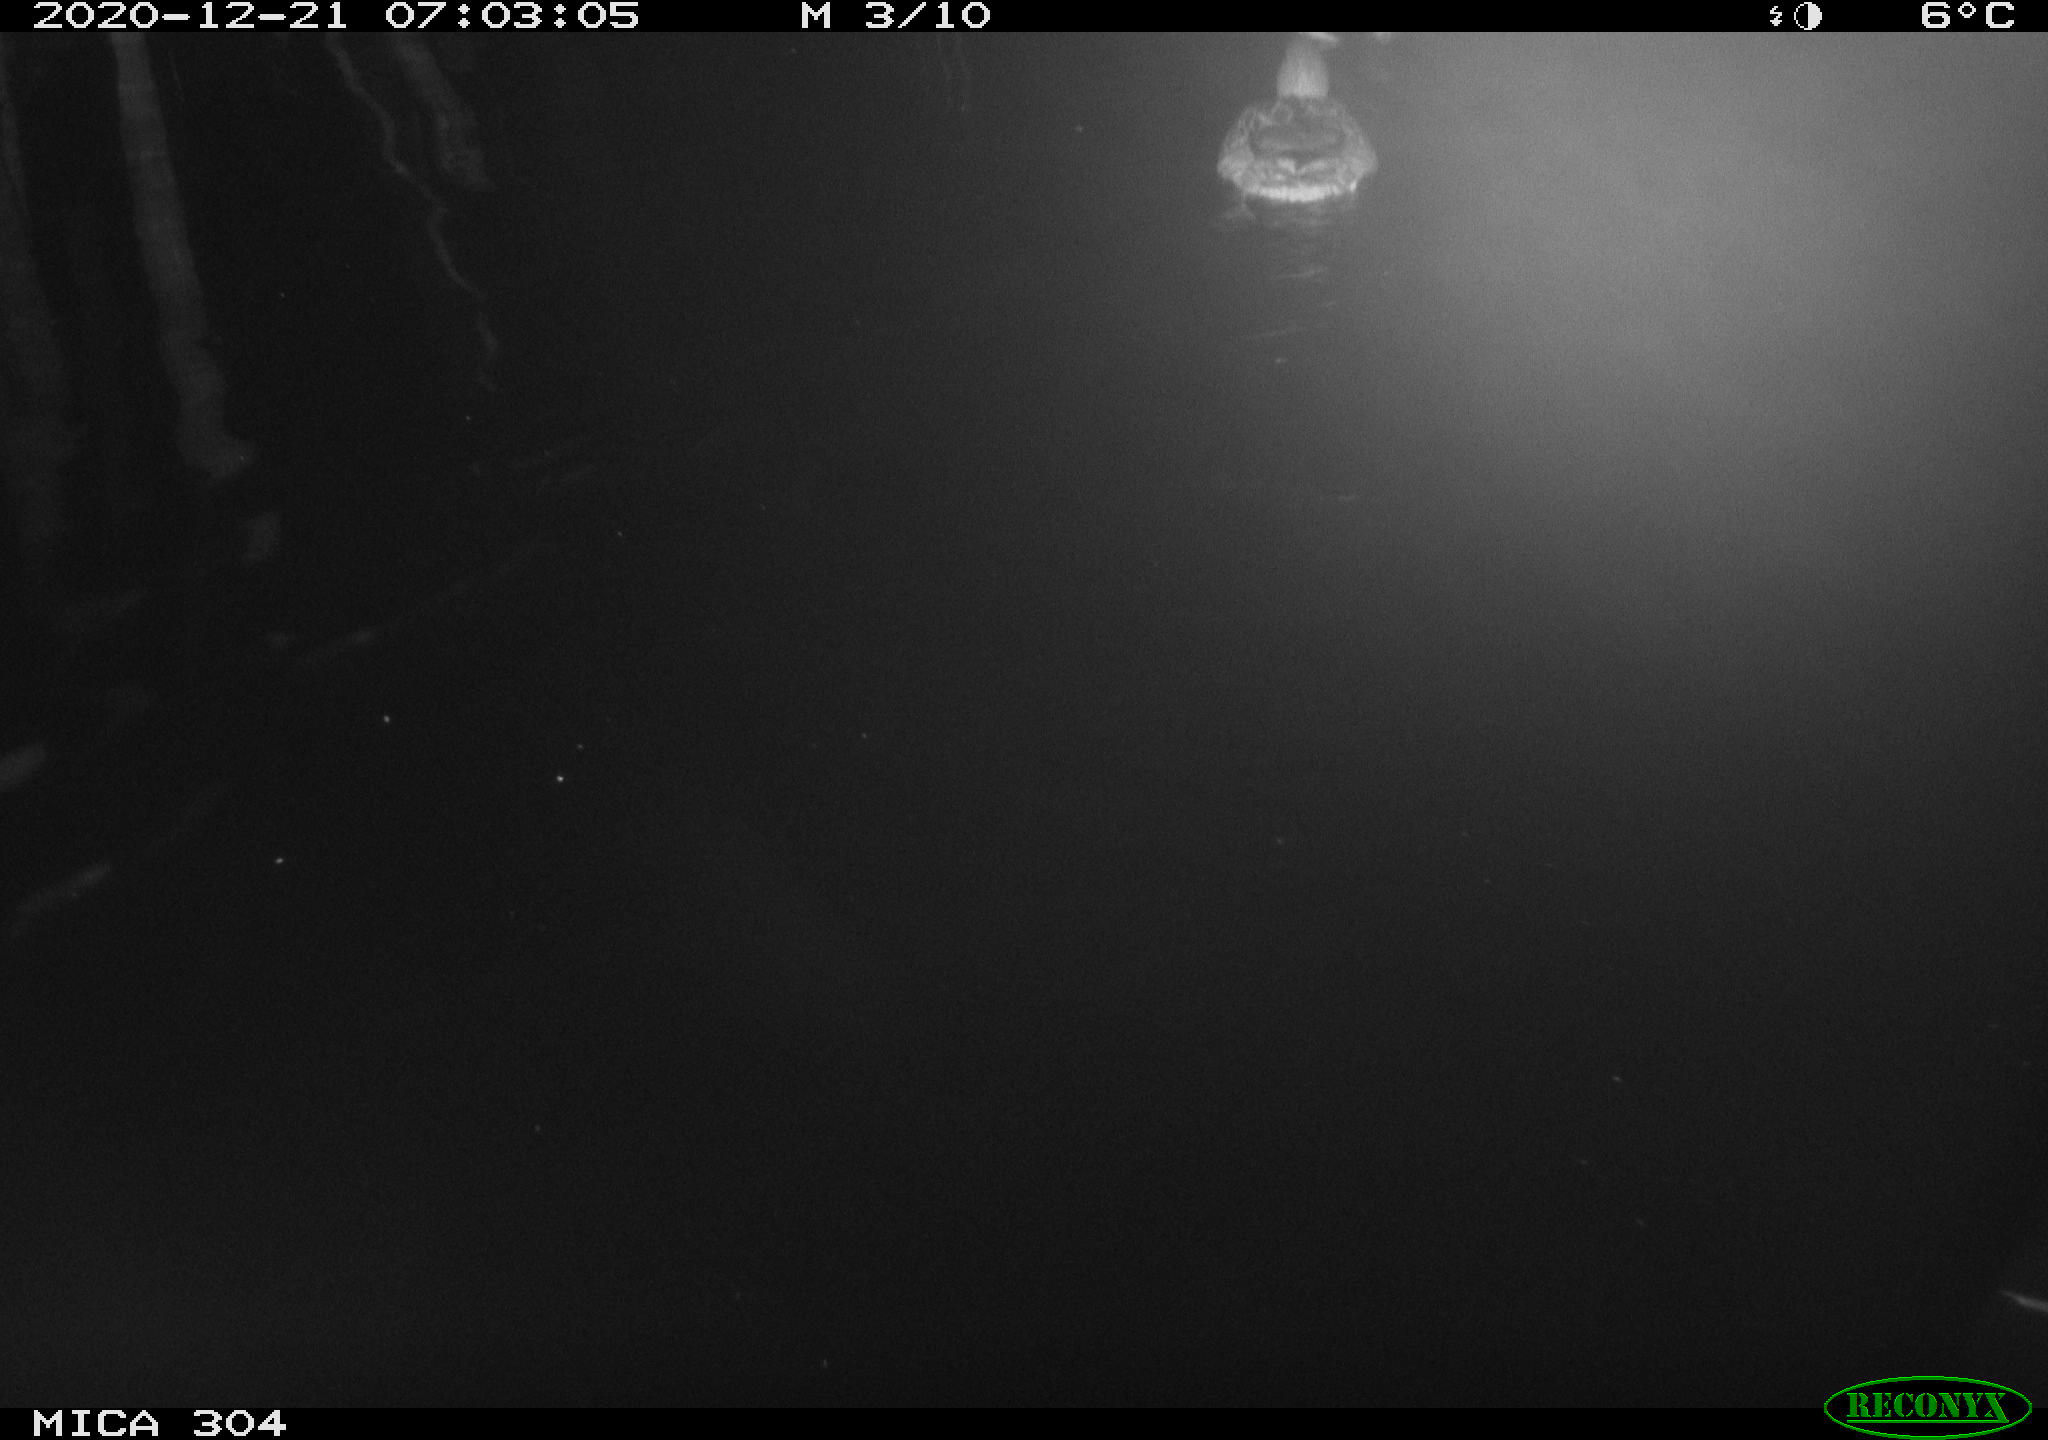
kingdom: Animalia
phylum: Chordata
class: Aves
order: Anseriformes
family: Anatidae
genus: Anas
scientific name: Anas platyrhynchos
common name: Mallard
